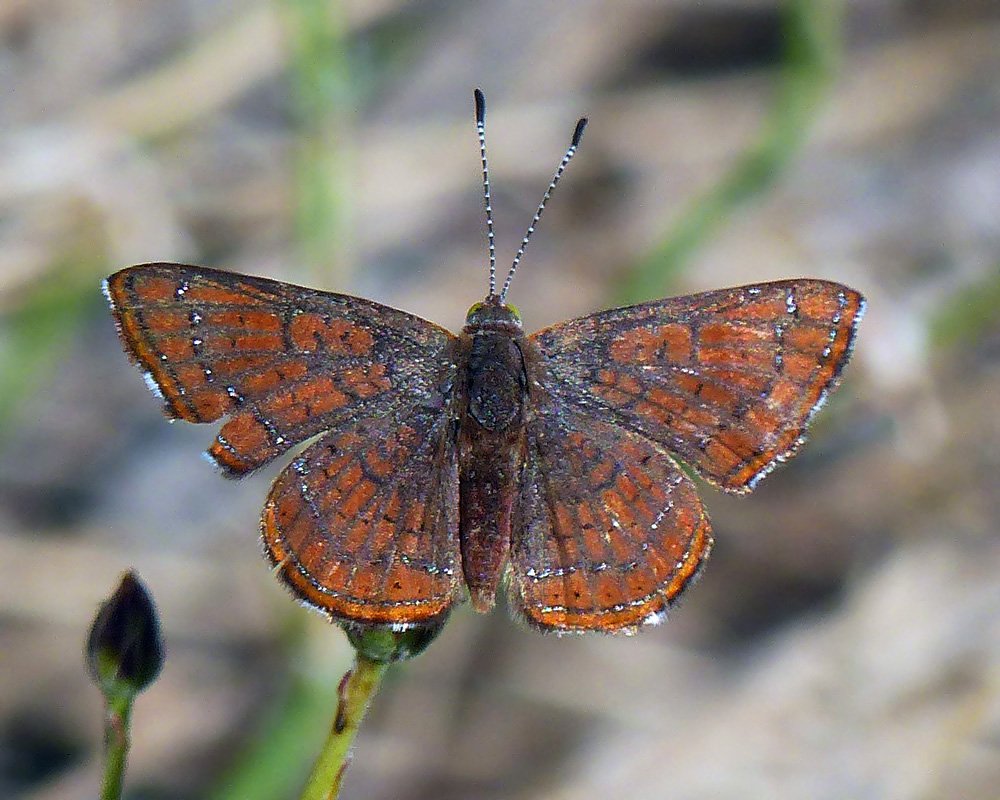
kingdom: Animalia
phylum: Arthropoda
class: Insecta
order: Lepidoptera
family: Lycaenidae
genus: Emesis
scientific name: Emesis wrighti
